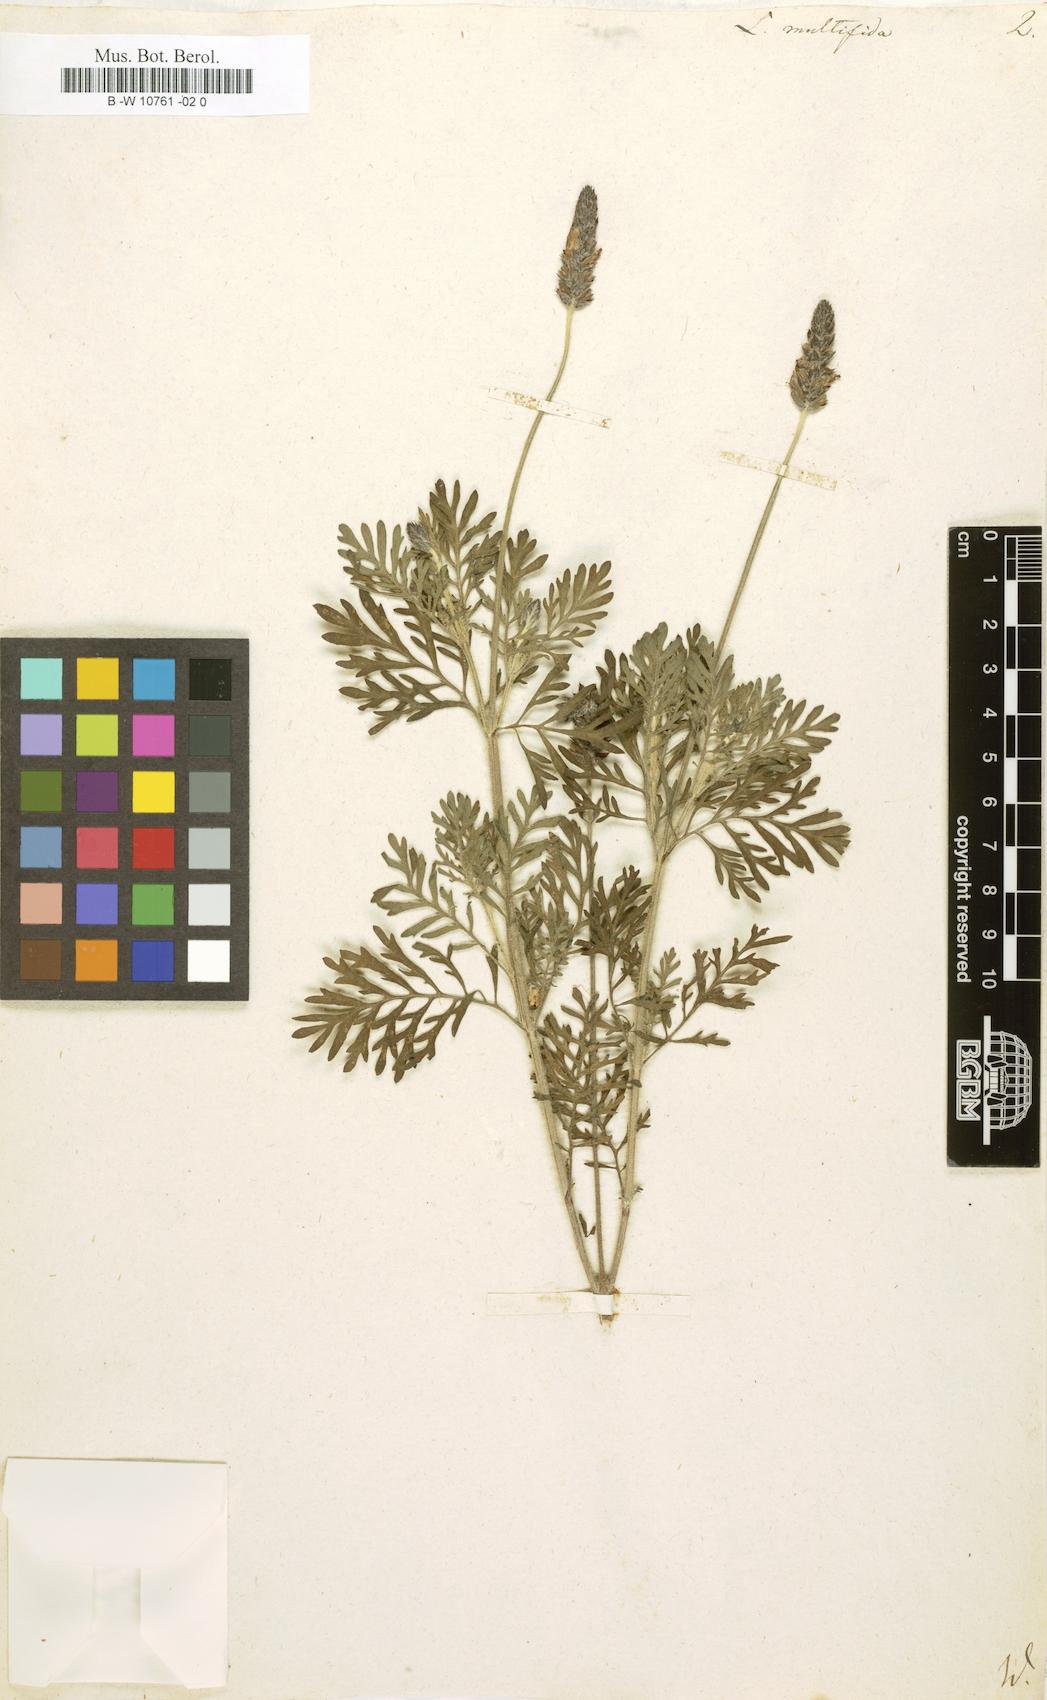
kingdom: Plantae
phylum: Tracheophyta
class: Magnoliopsida
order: Lamiales
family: Lamiaceae
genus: Lavandula
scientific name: Lavandula multifida
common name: Fern-leaf lavender
